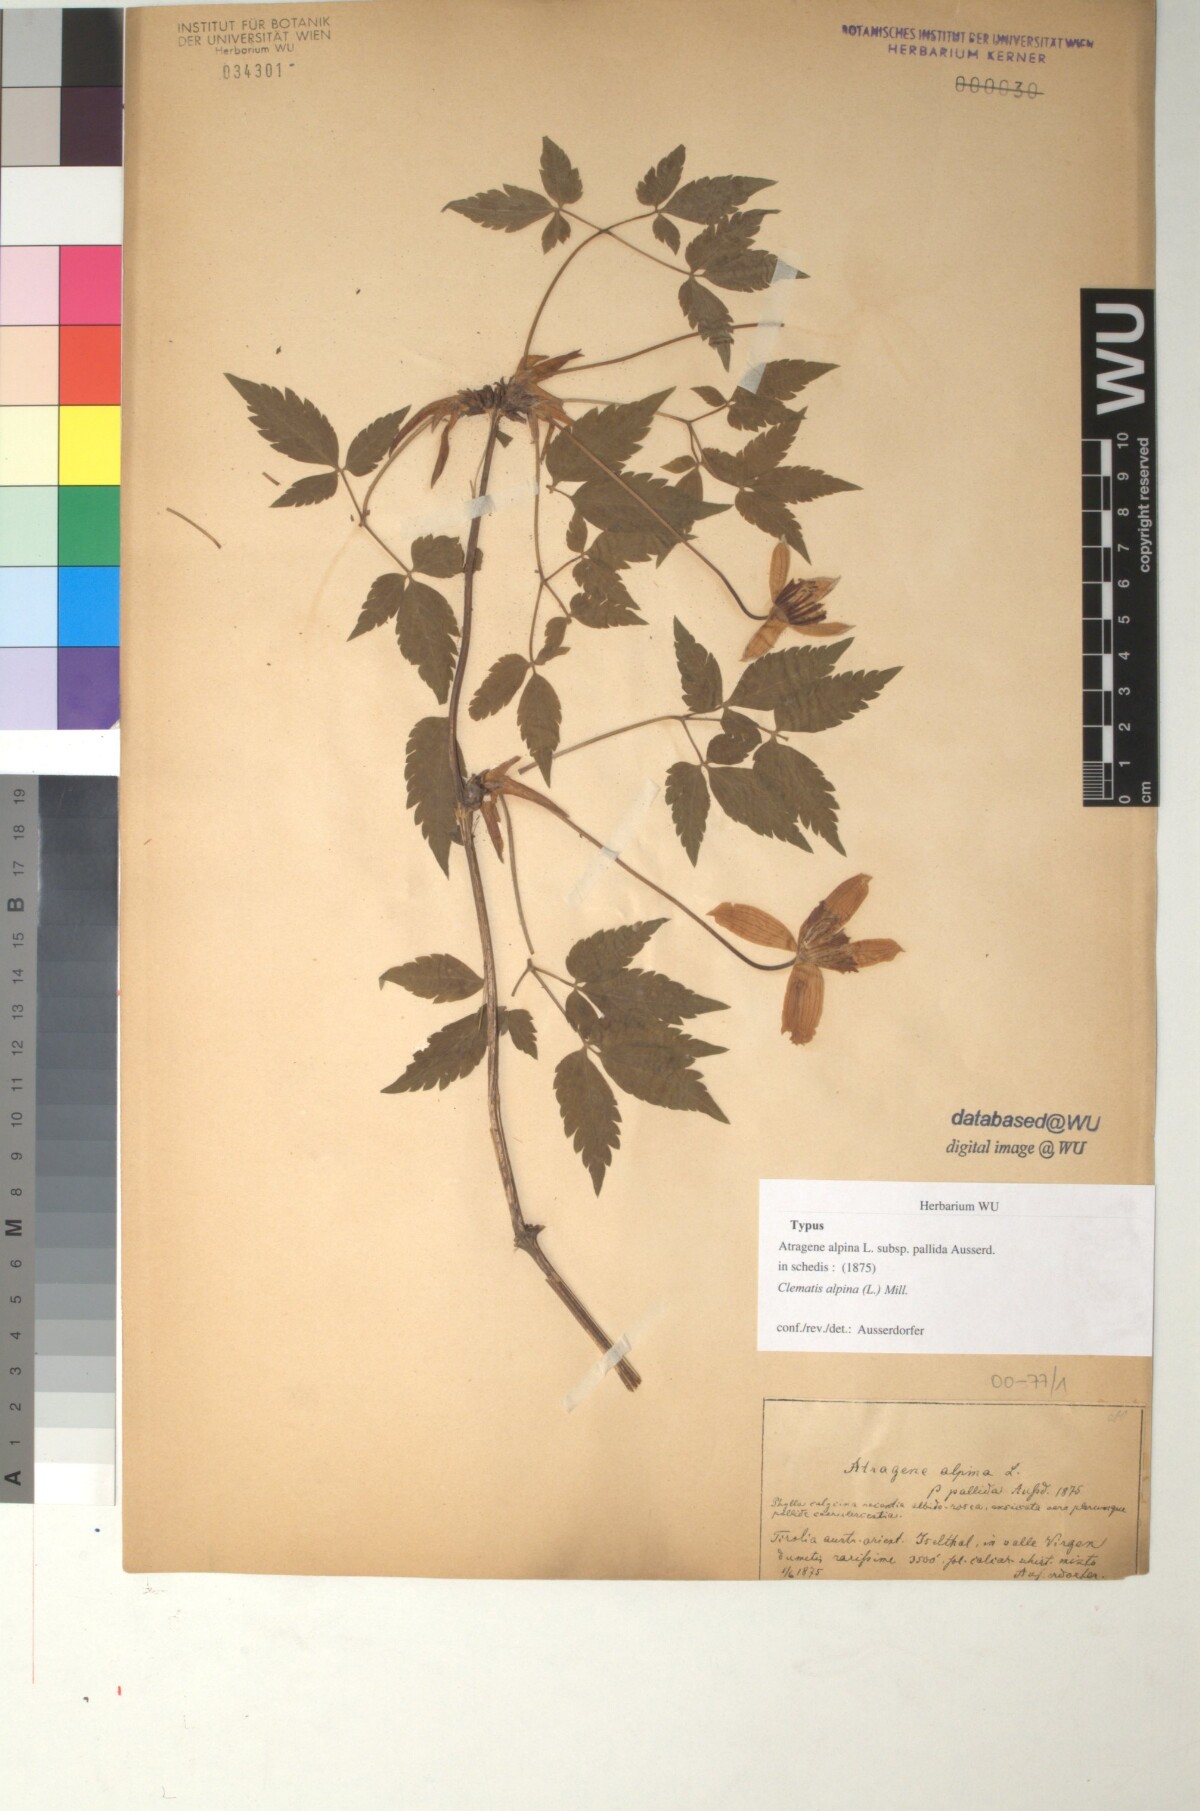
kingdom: Plantae
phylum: Tracheophyta
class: Magnoliopsida
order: Ranunculales
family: Ranunculaceae
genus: Clematis
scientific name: Clematis alpina
